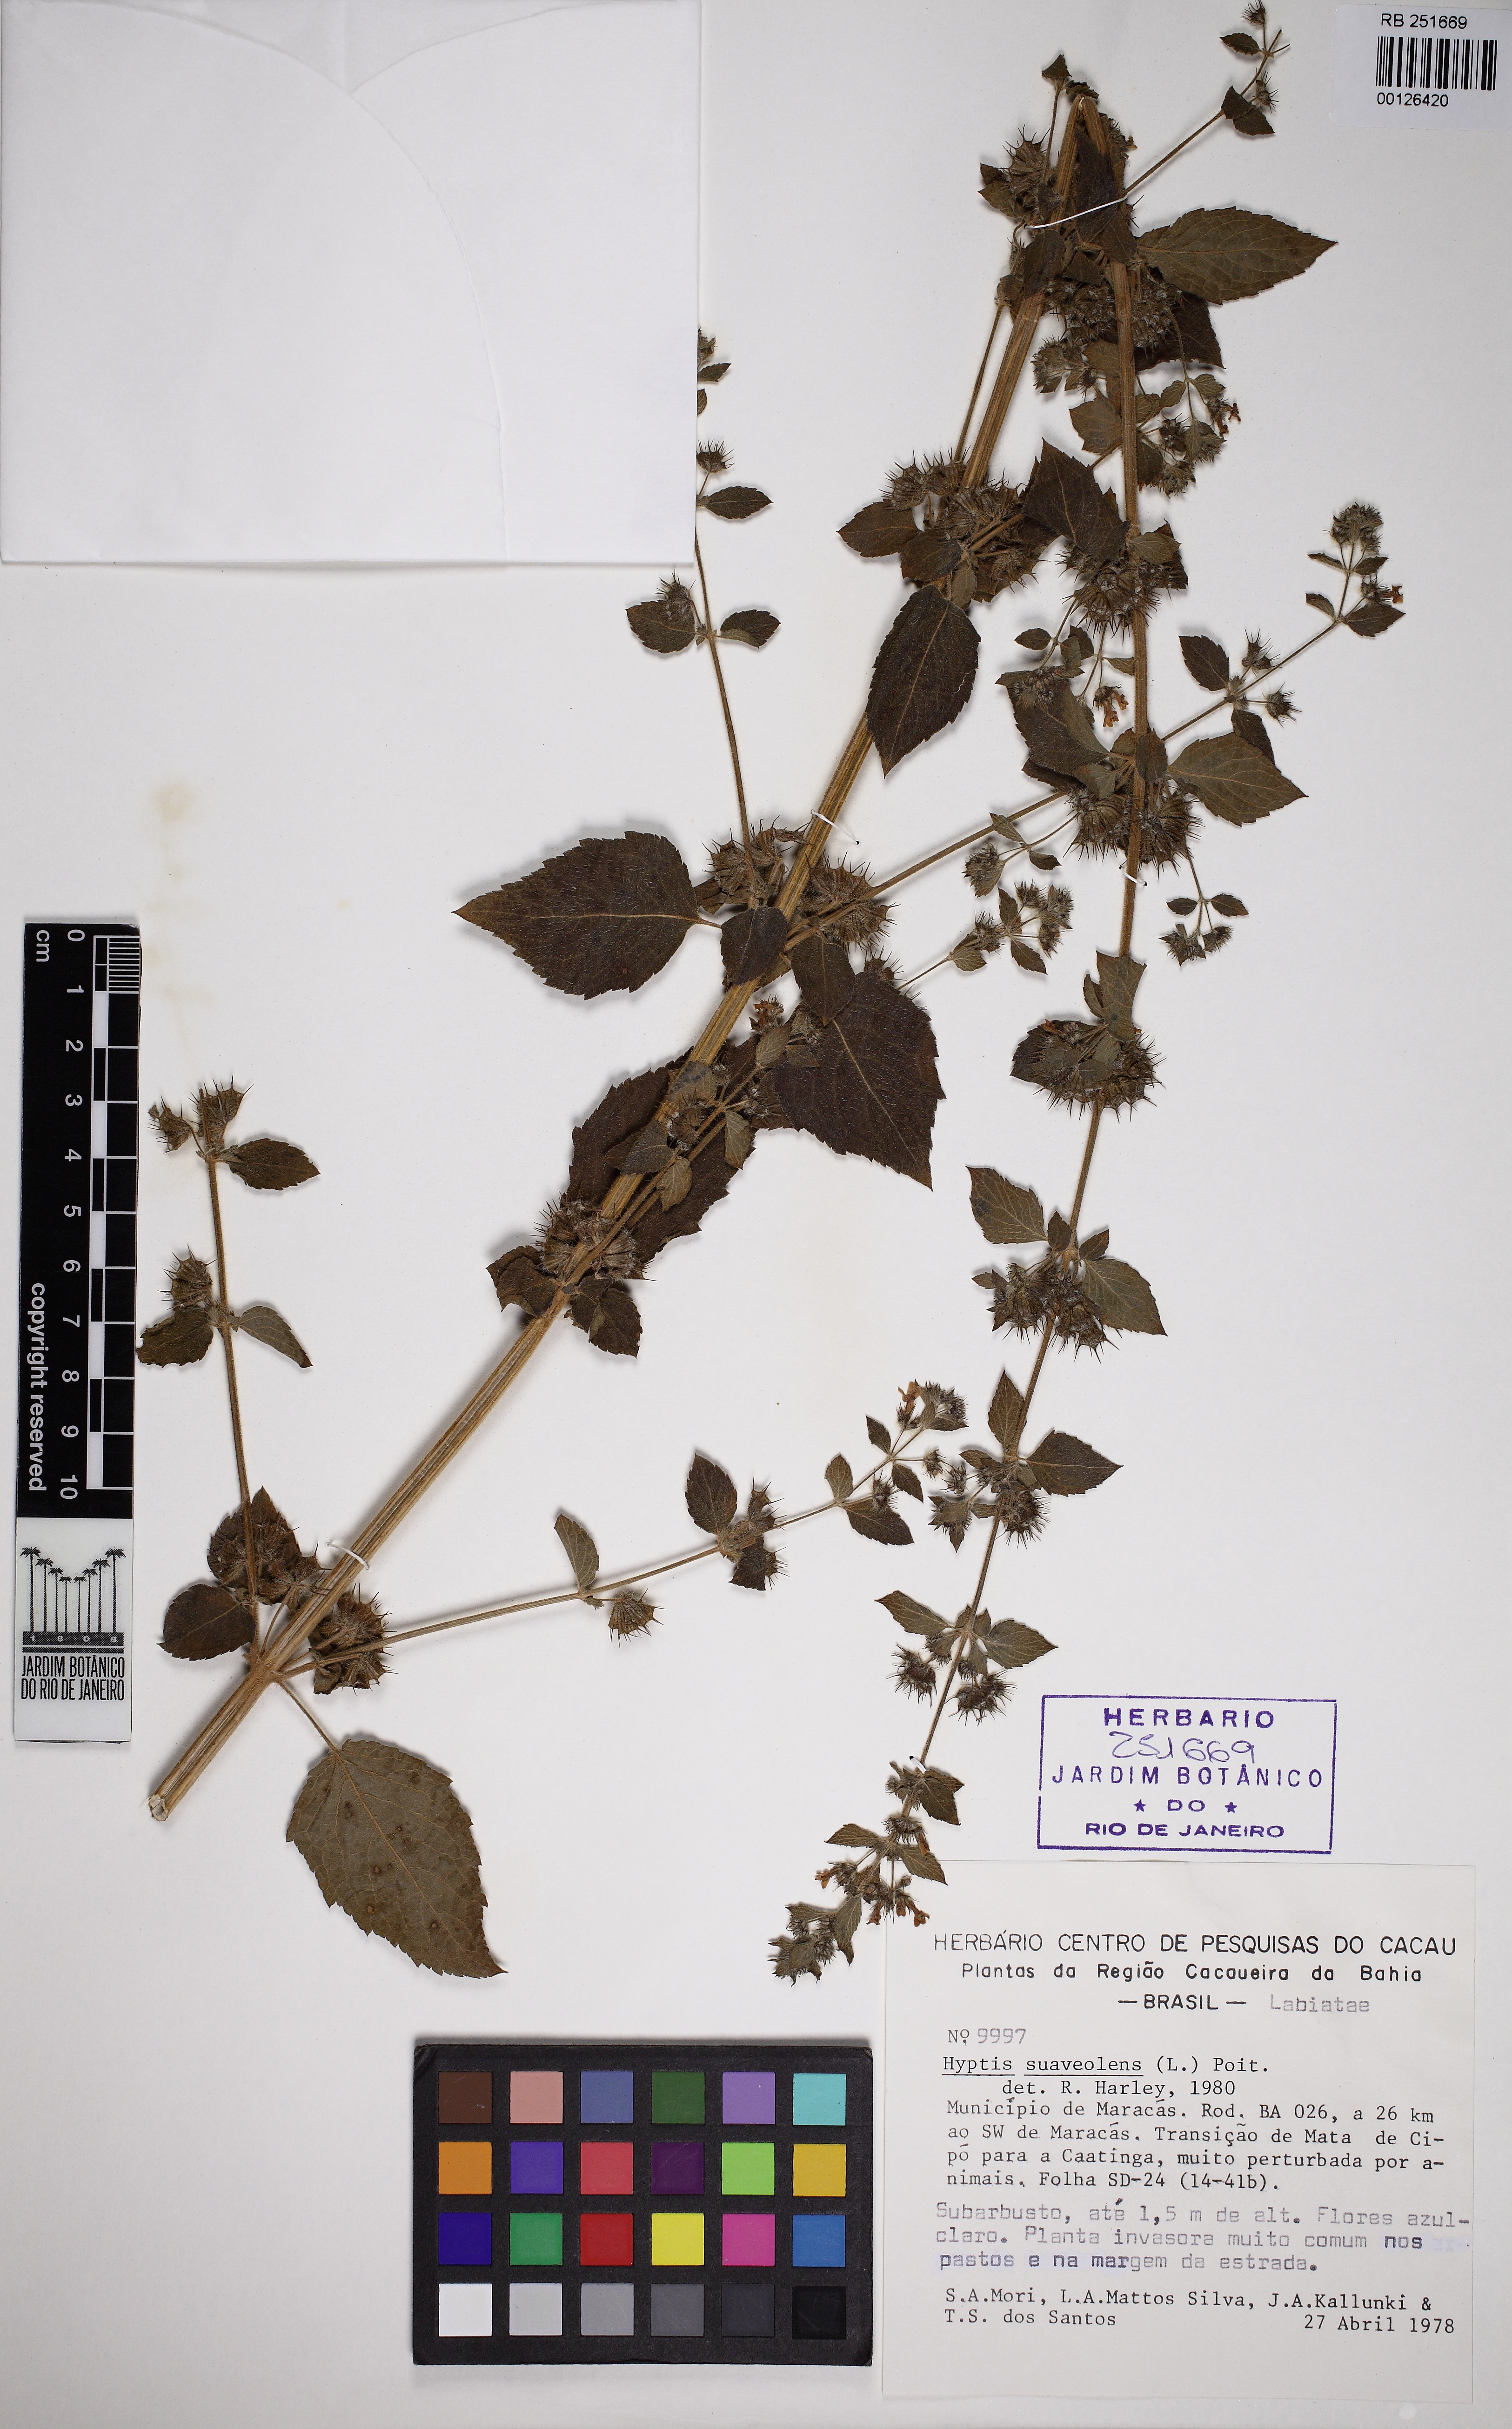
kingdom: Plantae
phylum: Tracheophyta
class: Magnoliopsida
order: Lamiales
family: Lamiaceae
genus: Mesosphaerum
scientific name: Mesosphaerum suaveolens
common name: Pignut
